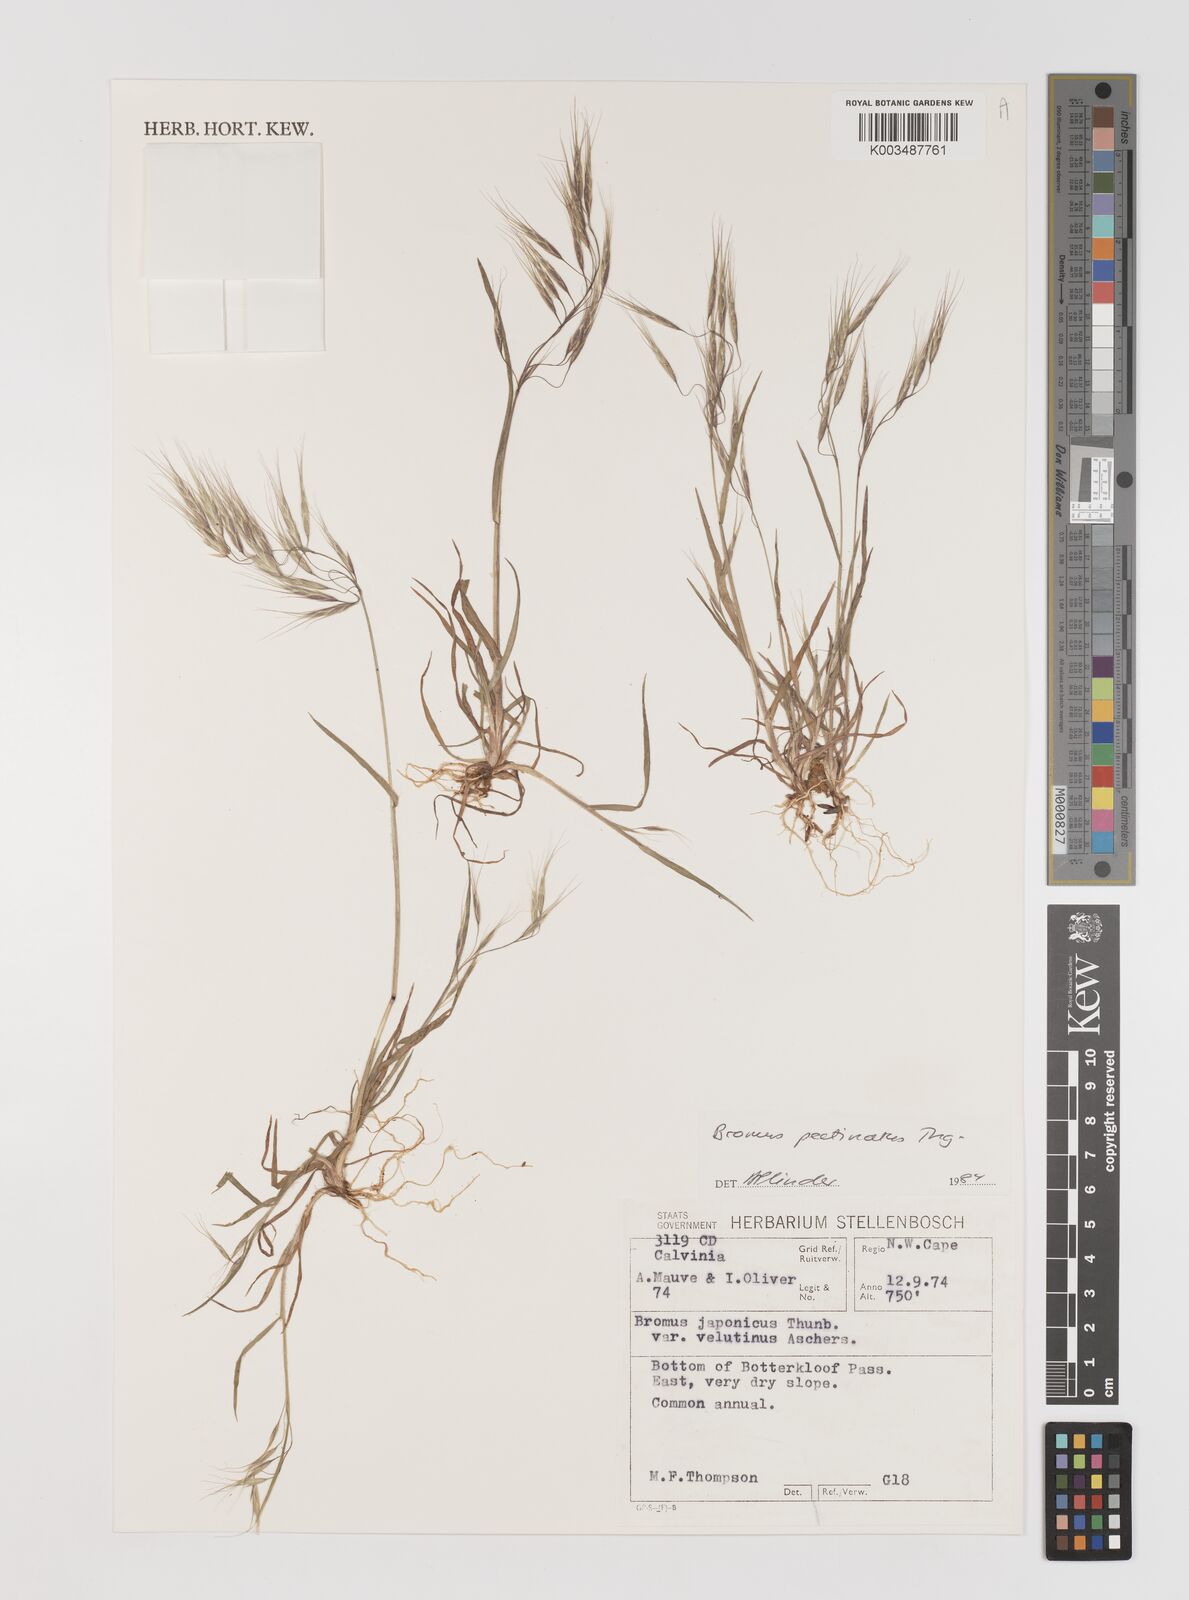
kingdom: Plantae
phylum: Tracheophyta
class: Liliopsida
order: Poales
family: Poaceae
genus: Bromus
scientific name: Bromus pectinatus
